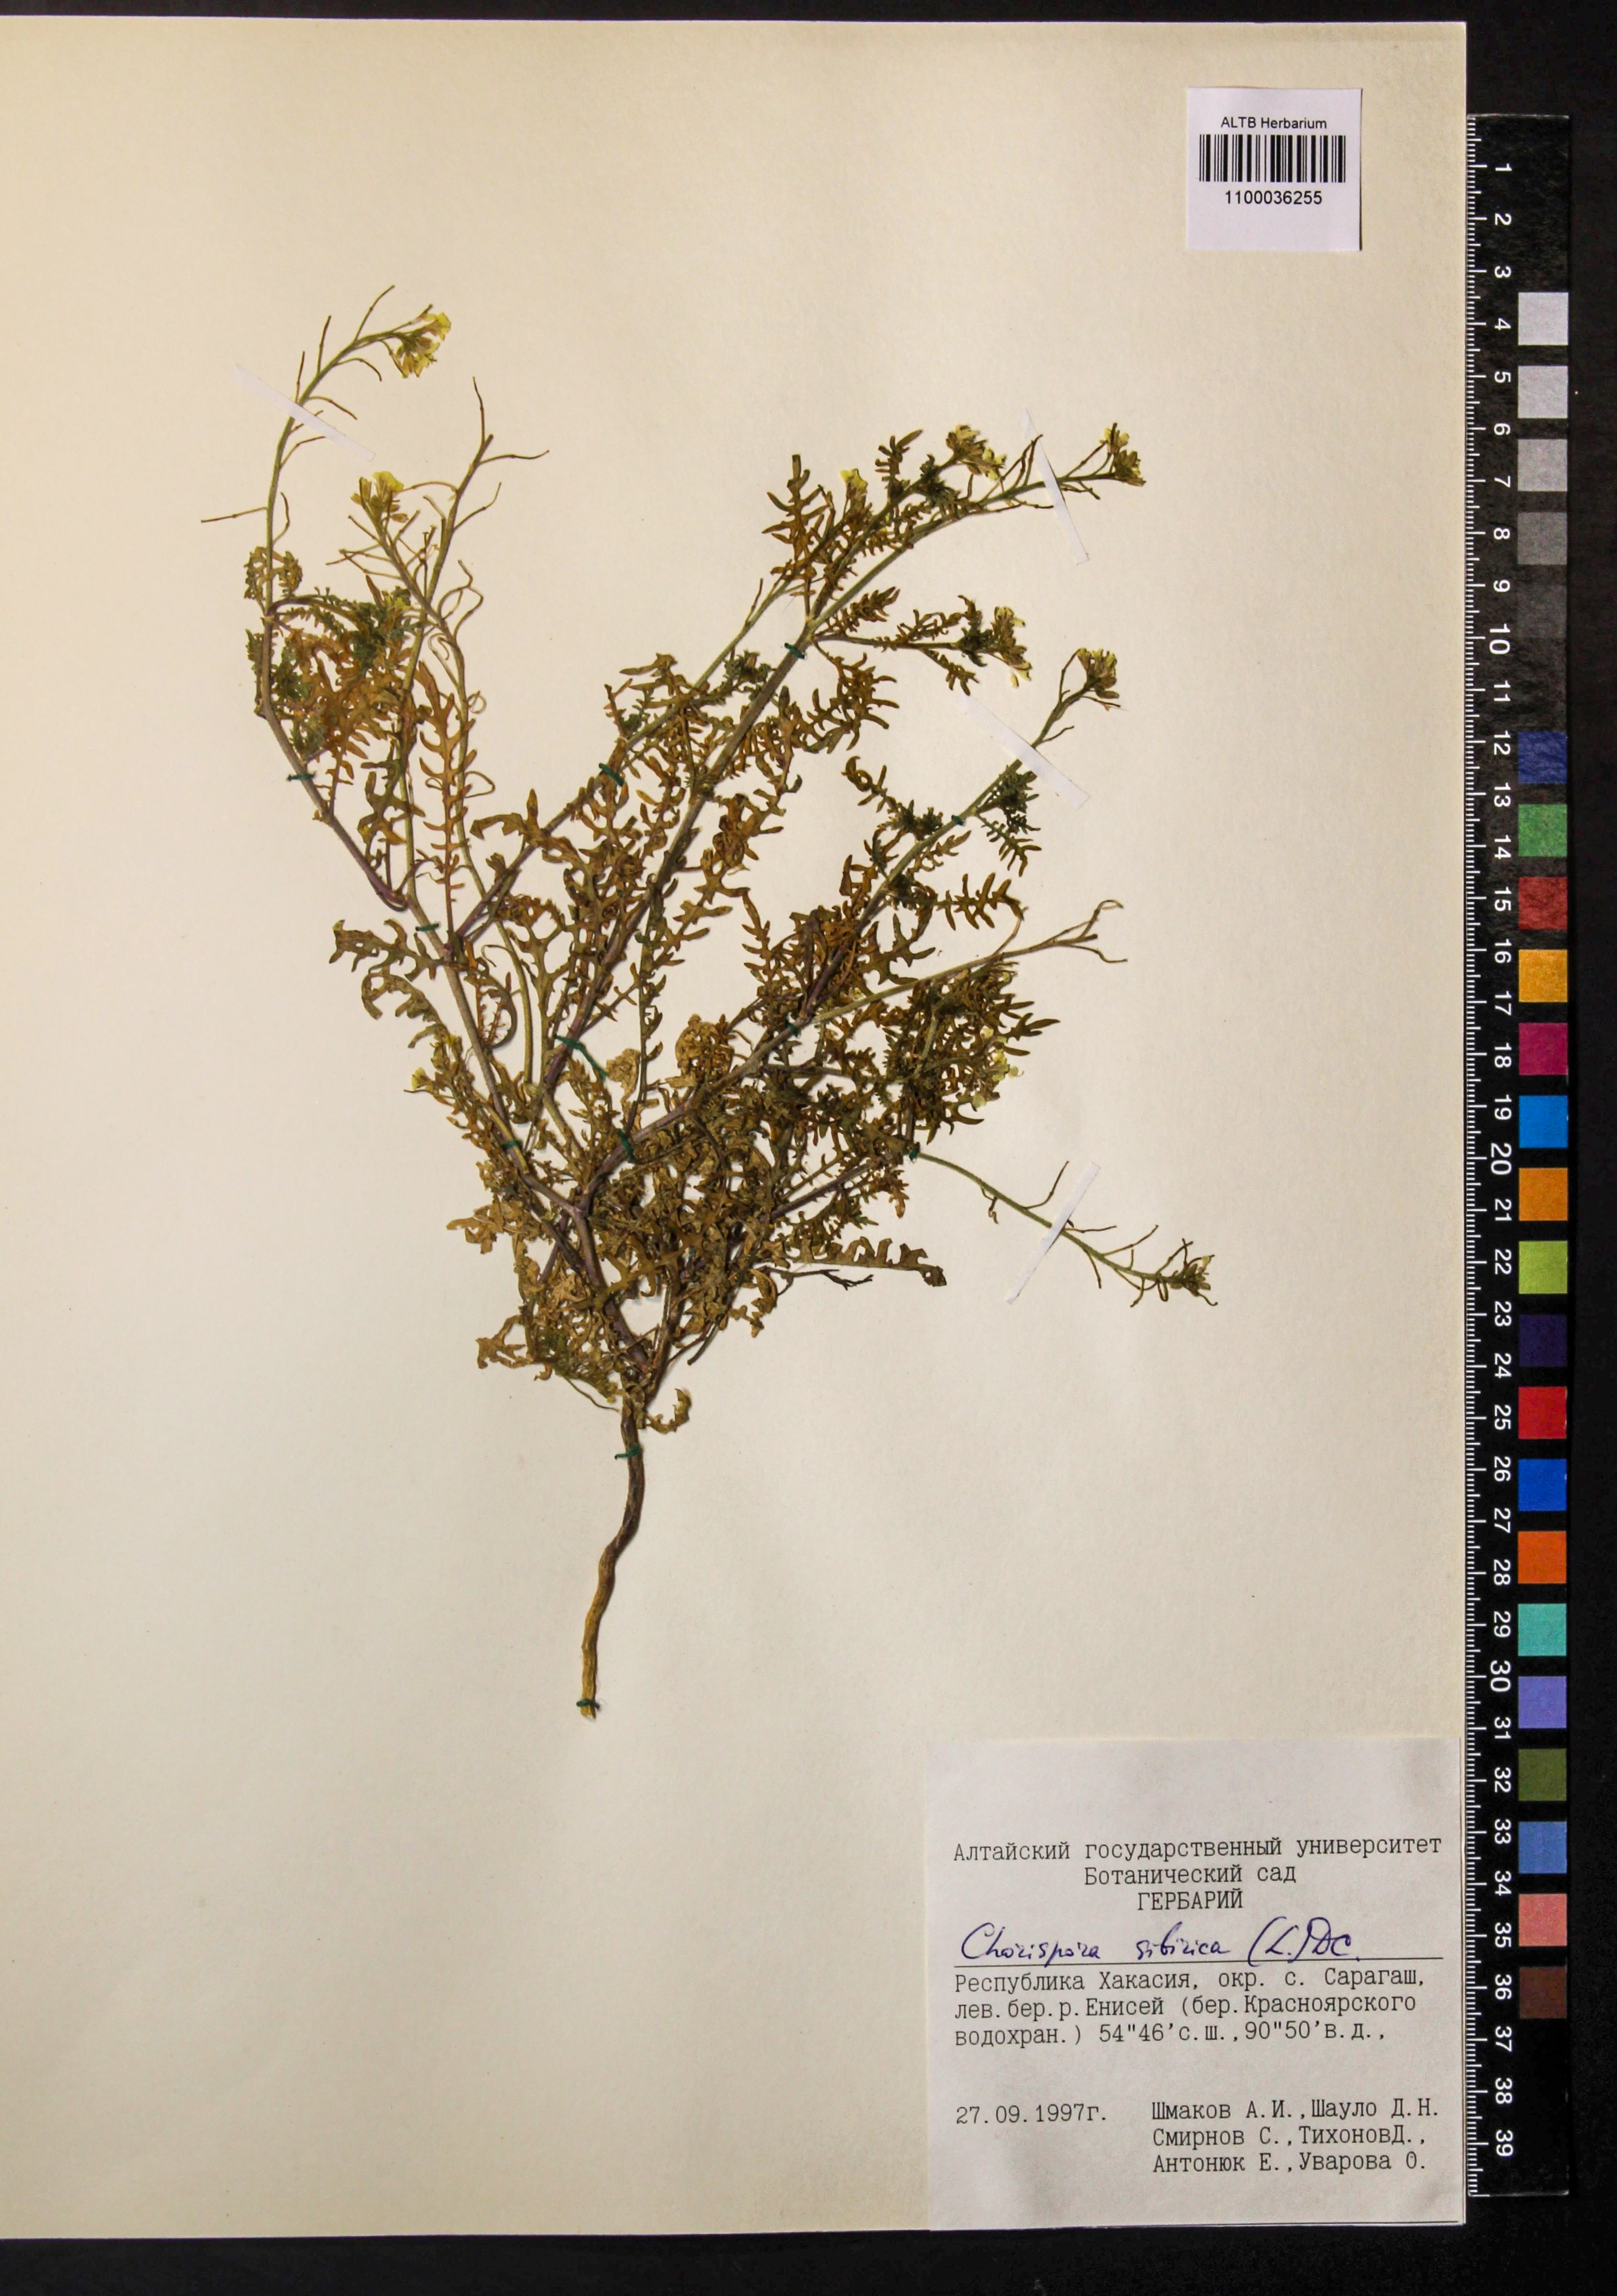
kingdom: Plantae
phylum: Tracheophyta
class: Magnoliopsida
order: Brassicales
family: Brassicaceae
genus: Chorispora
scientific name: Chorispora sibirica
